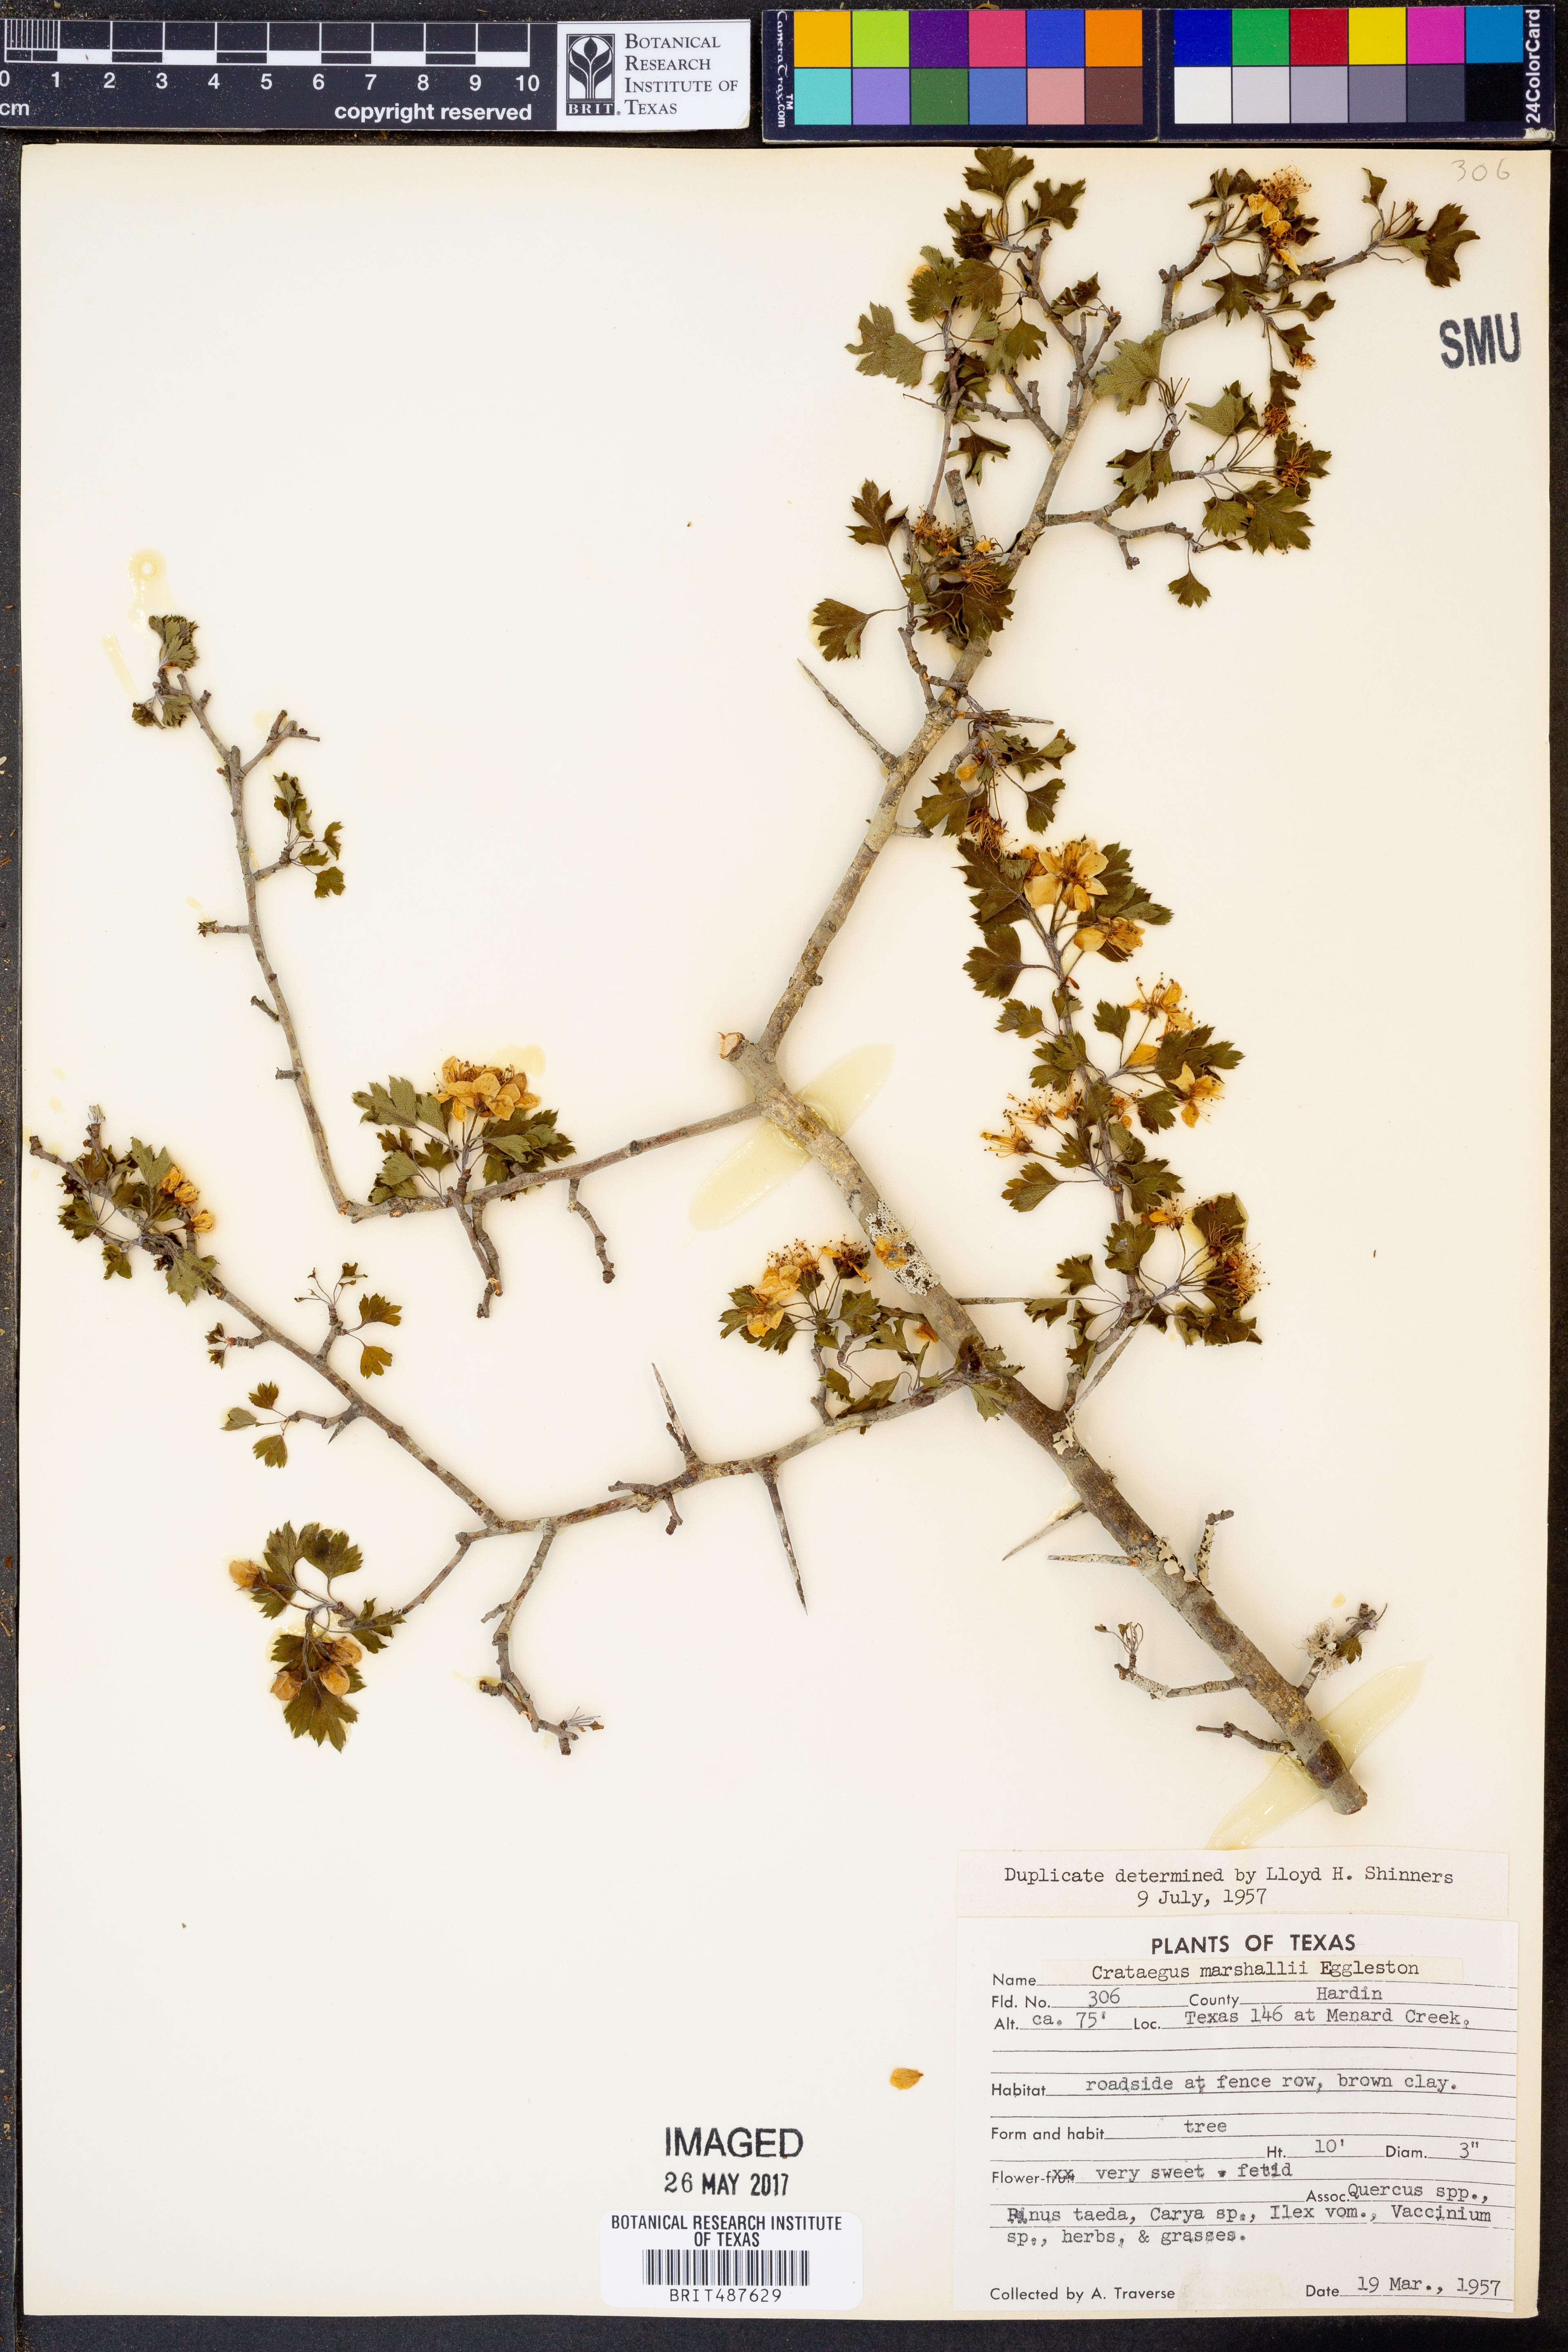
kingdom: Plantae
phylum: Tracheophyta
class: Magnoliopsida
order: Rosales
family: Rosaceae
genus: Crataegus
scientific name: Crataegus marshallii
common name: Parsley-hawthorn
